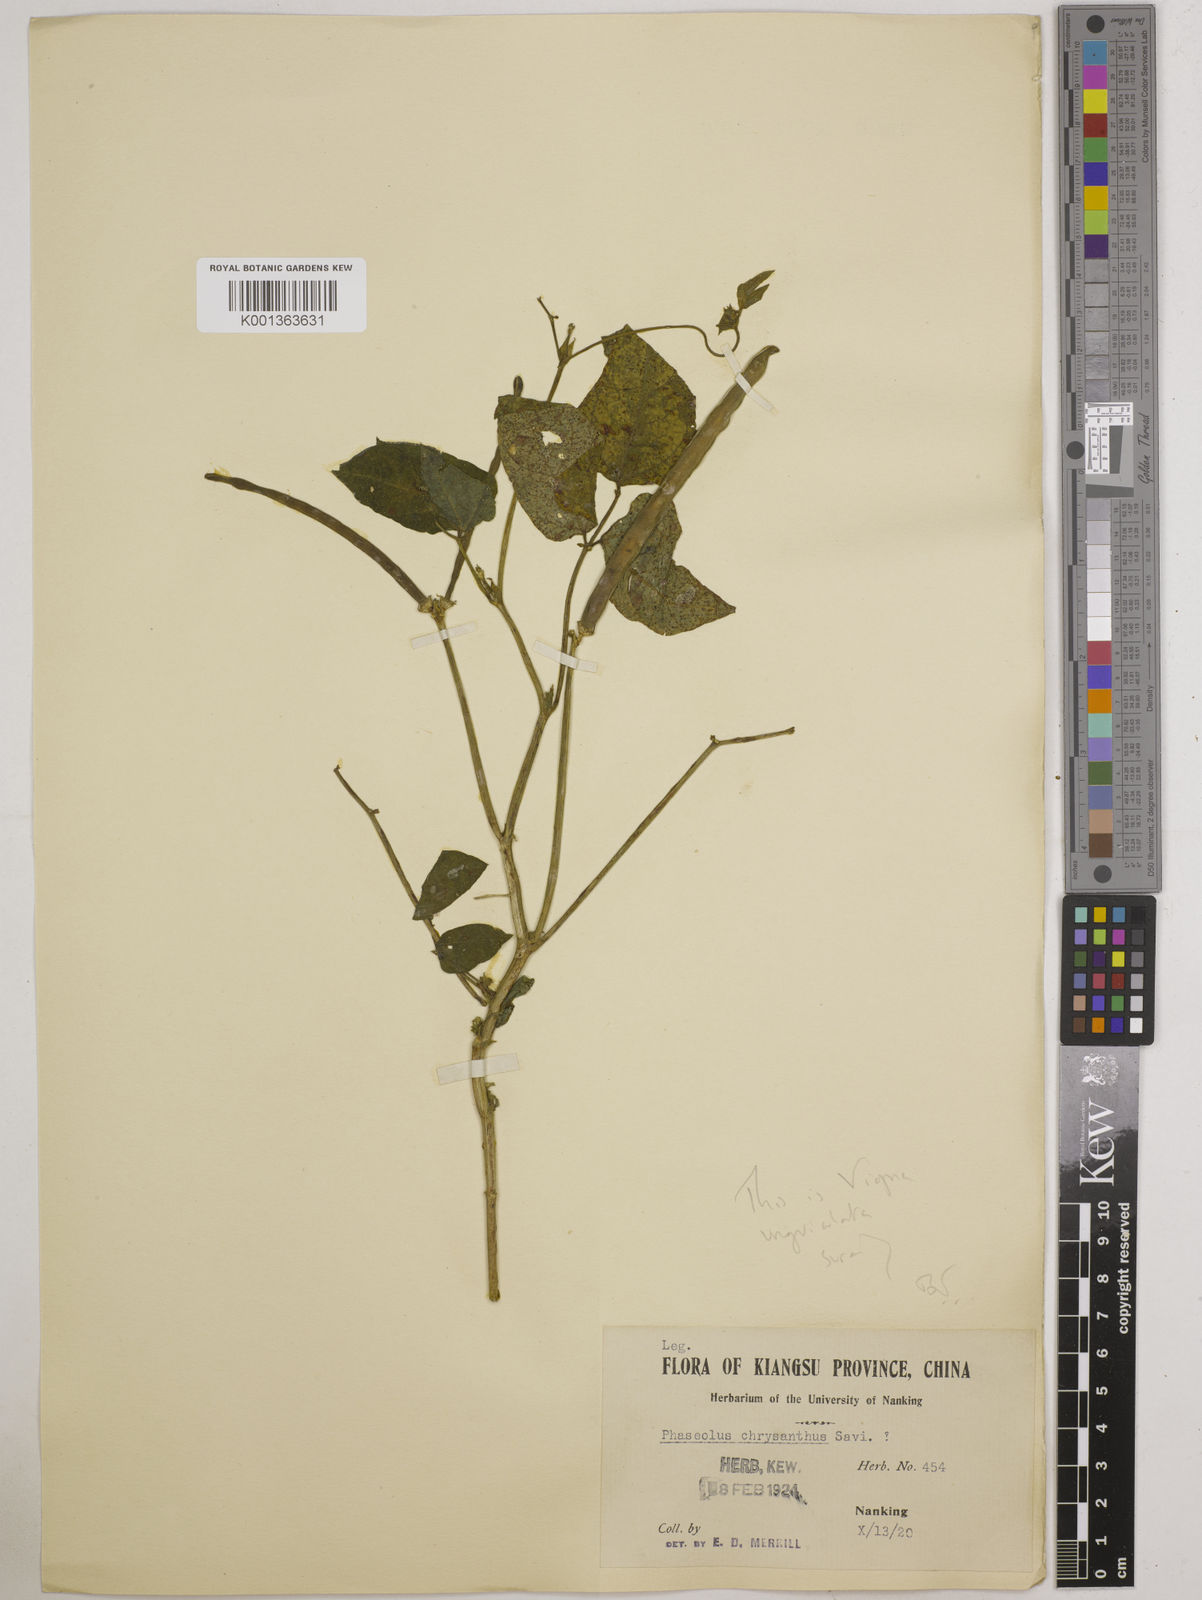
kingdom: Plantae
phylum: Tracheophyta
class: Magnoliopsida
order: Fabales
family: Fabaceae
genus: Vigna
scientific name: Vigna unguiculata
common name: Cowpea
